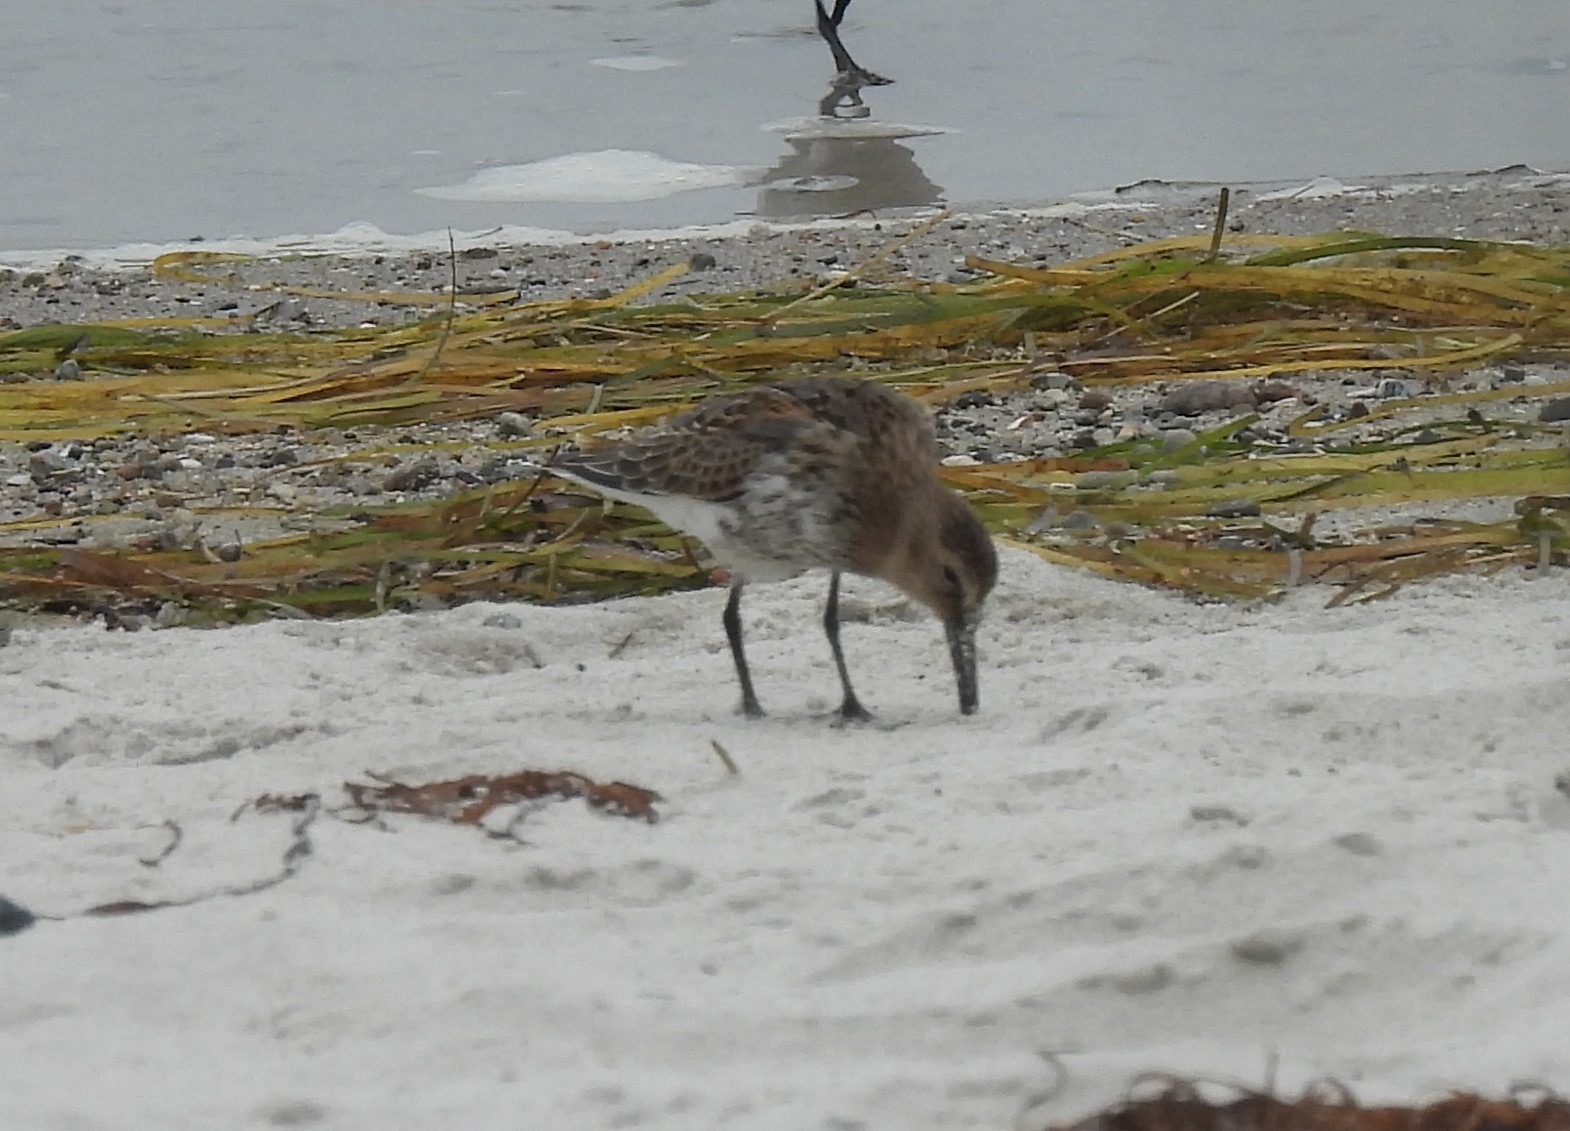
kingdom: Animalia
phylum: Chordata
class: Aves
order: Charadriiformes
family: Scolopacidae
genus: Calidris
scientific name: Calidris alpina
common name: Almindelig ryle
